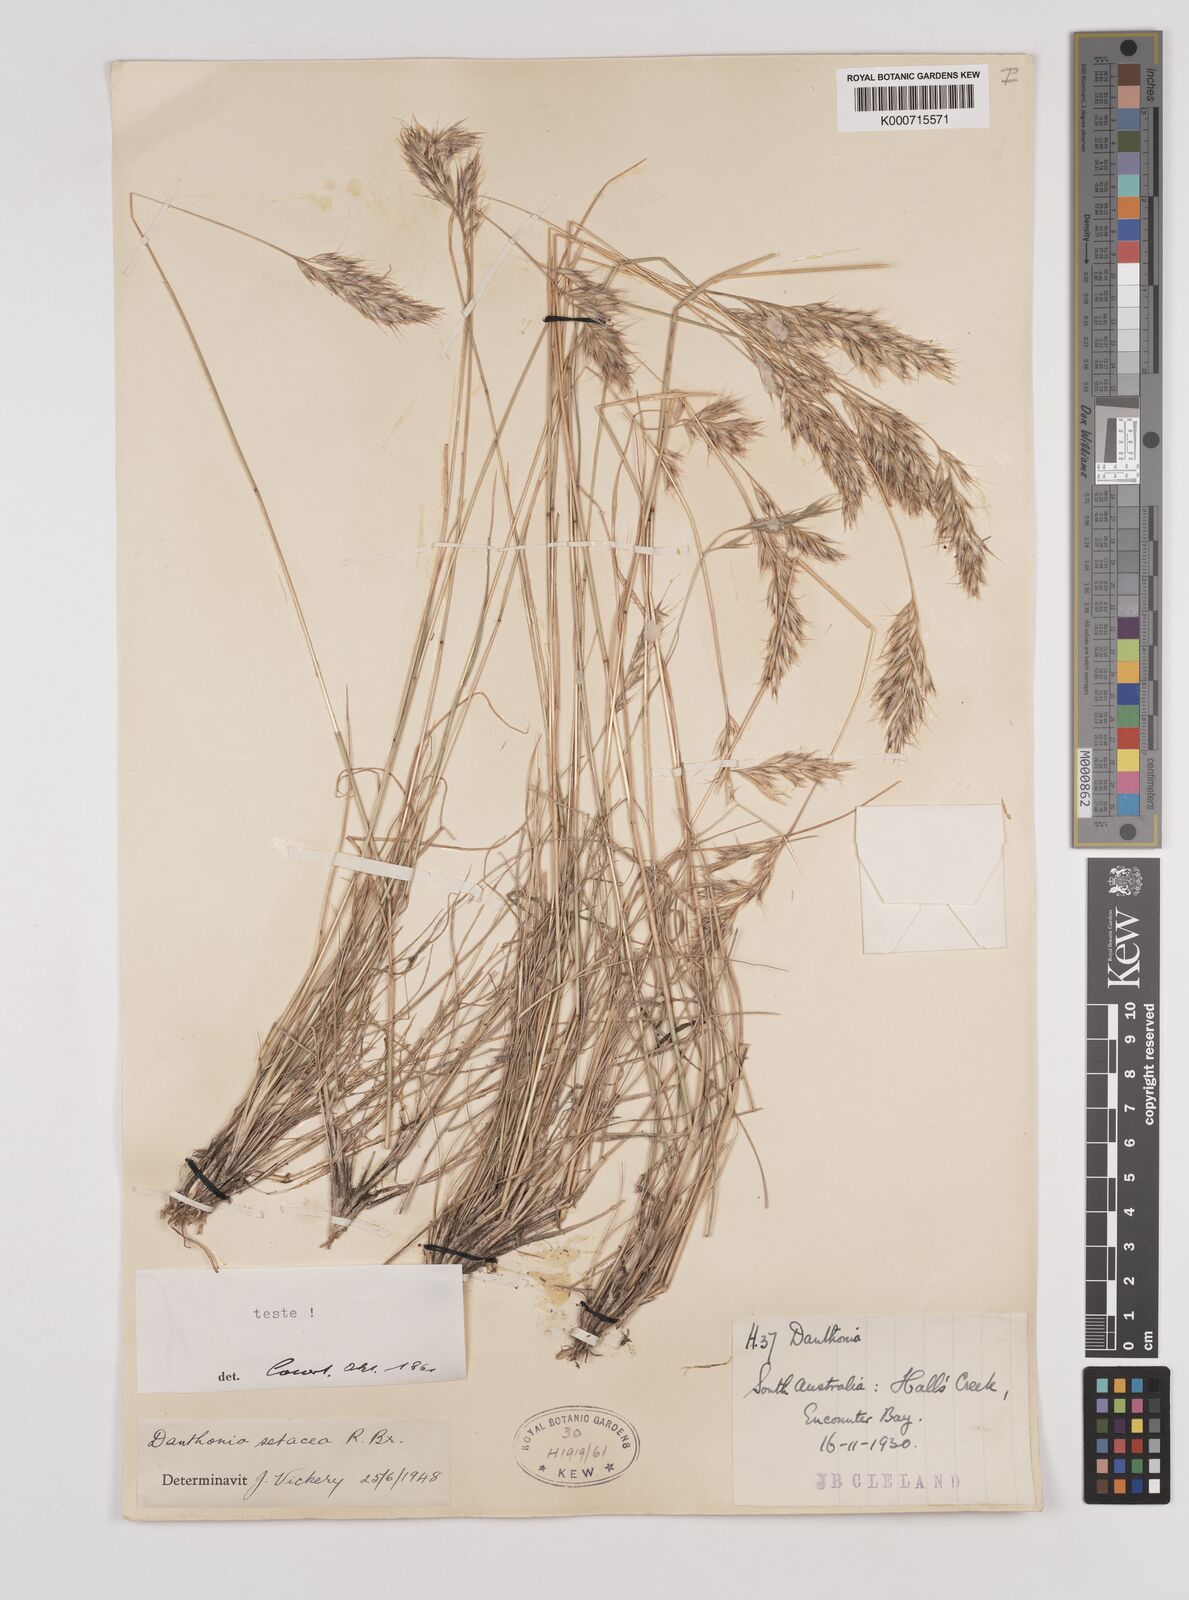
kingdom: Plantae
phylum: Tracheophyta
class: Liliopsida
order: Poales
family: Poaceae
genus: Rytidosperma
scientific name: Rytidosperma setaceum
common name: Small-flower wallaby grass
